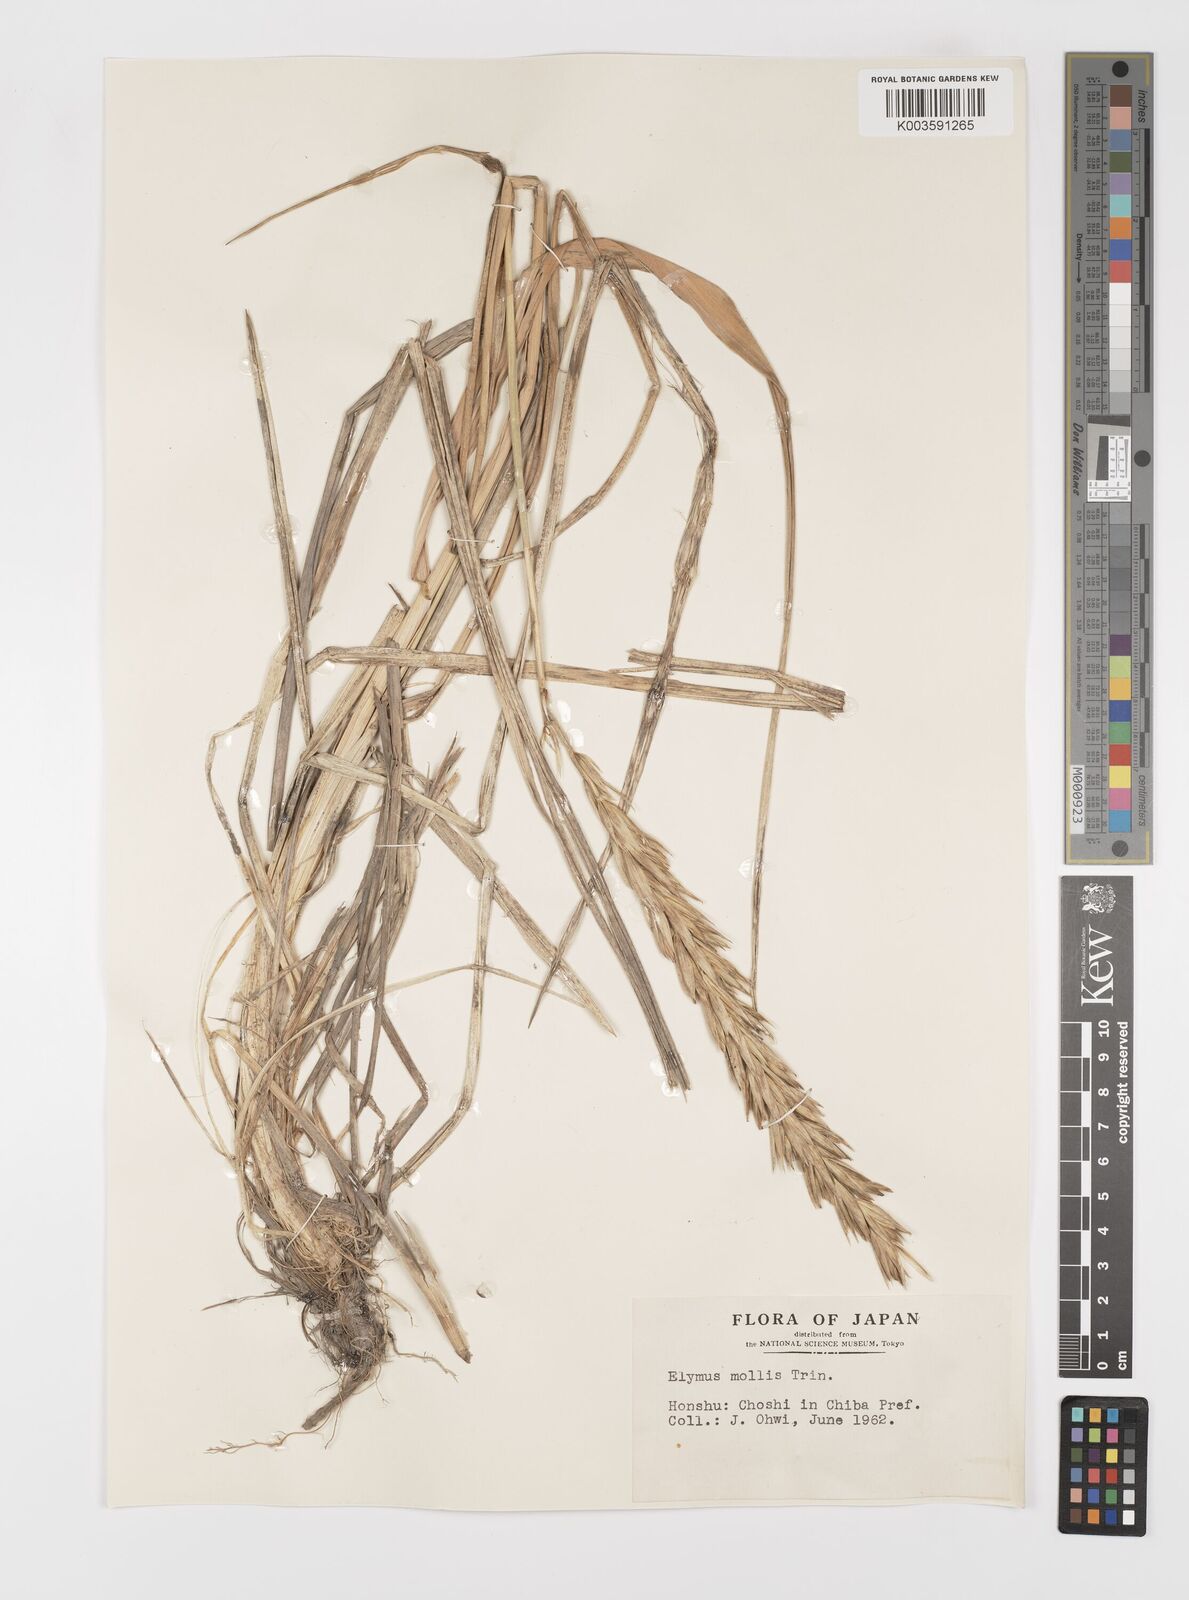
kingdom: Plantae
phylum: Tracheophyta
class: Liliopsida
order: Poales
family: Poaceae
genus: Leymus
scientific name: Leymus mollis
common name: American dune grass
